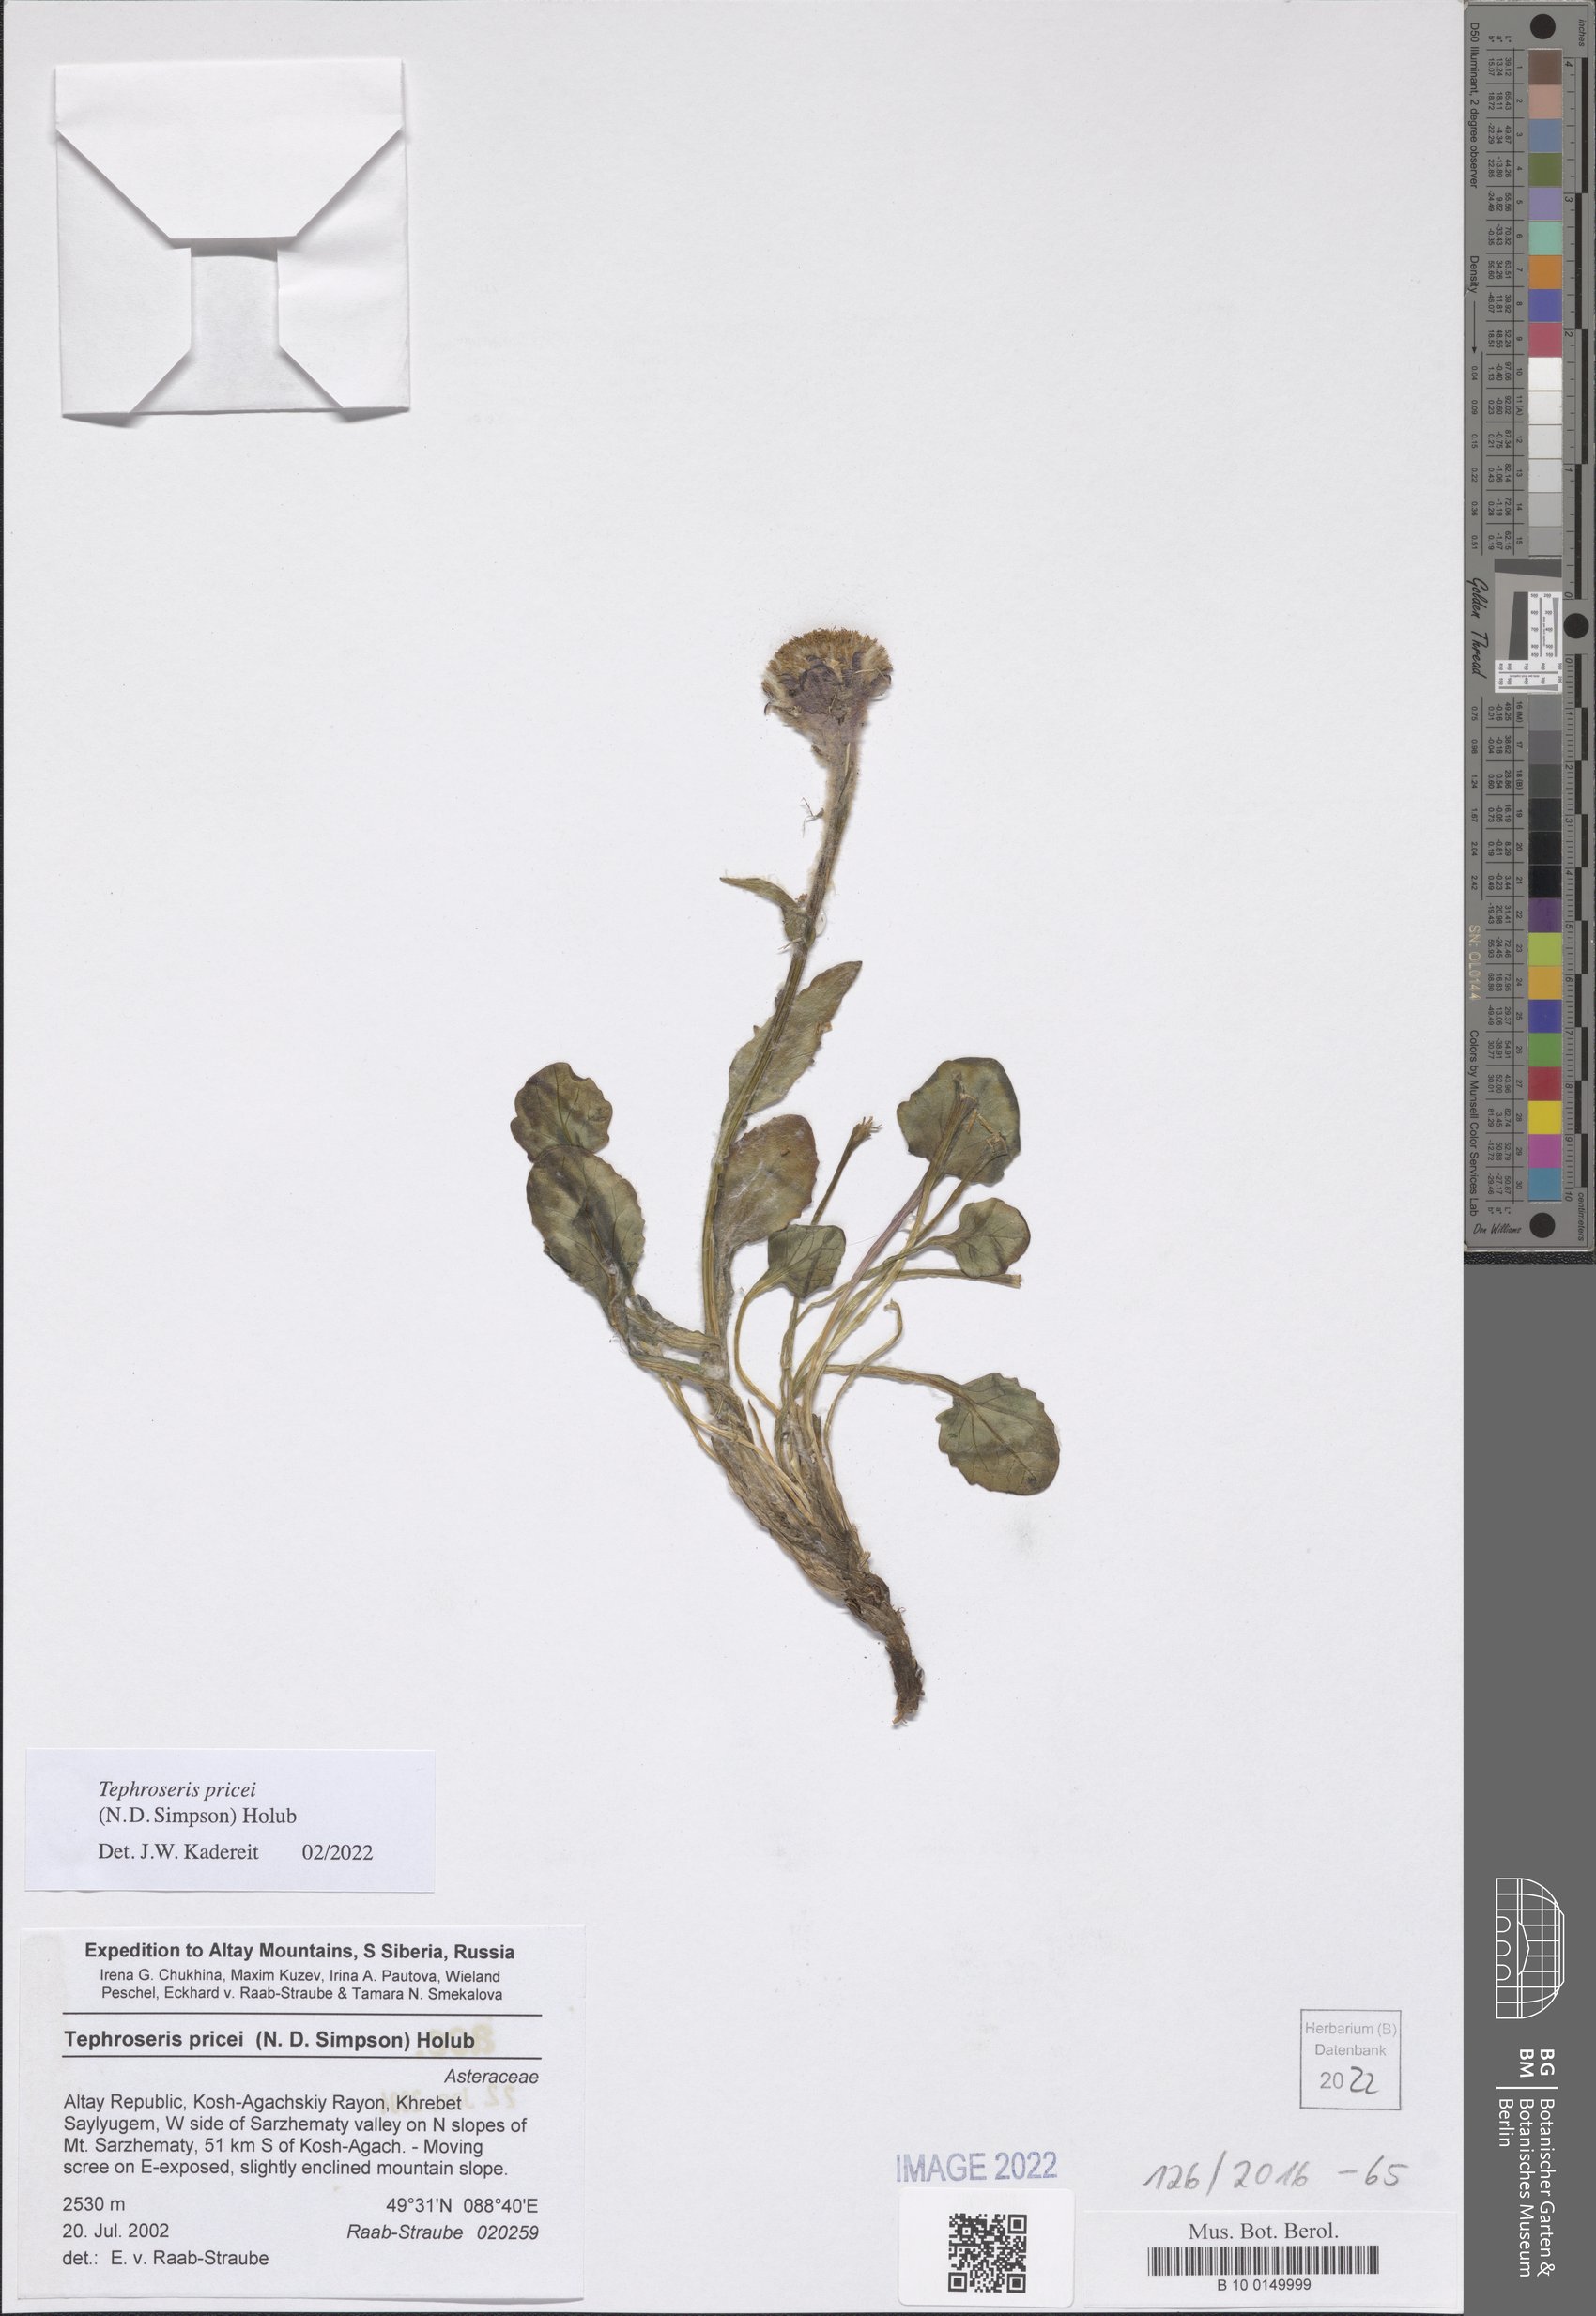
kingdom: Plantae
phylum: Tracheophyta
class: Magnoliopsida
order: Asterales
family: Asteraceae
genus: Tephroseris
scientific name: Tephroseris pricei
